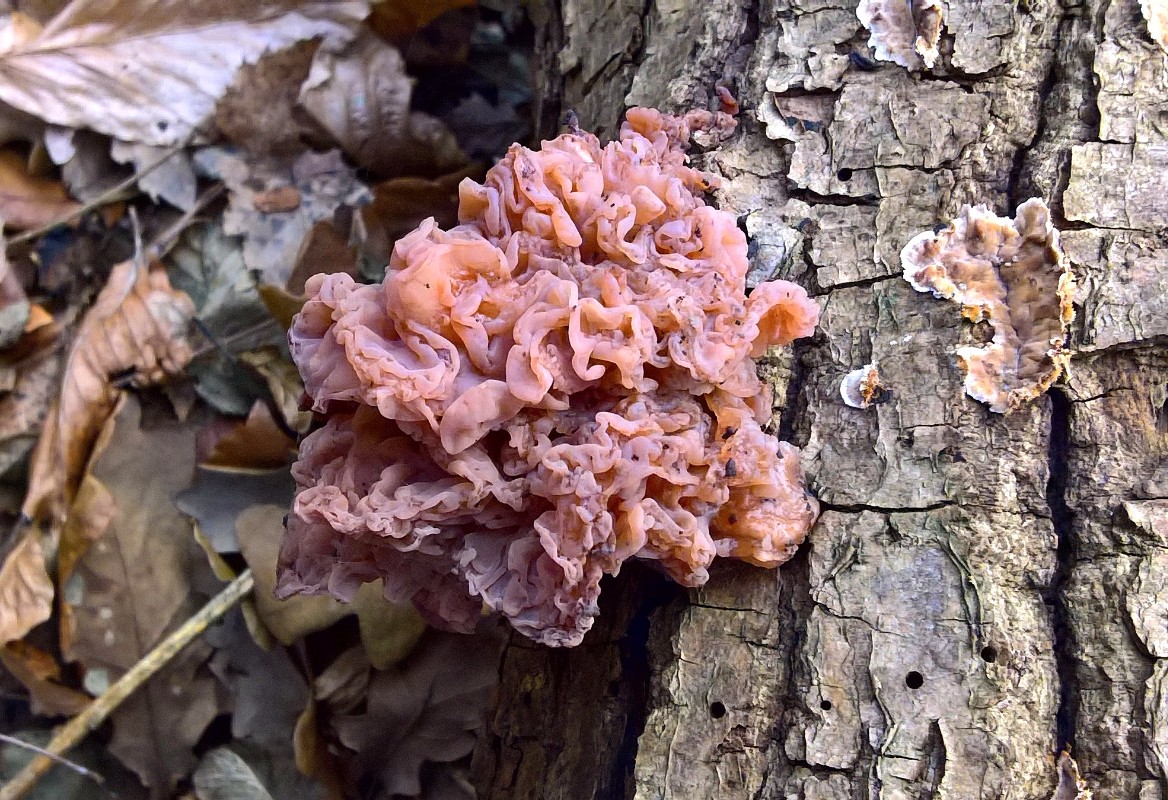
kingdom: Fungi
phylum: Basidiomycota
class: Tremellomycetes
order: Tremellales
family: Tremellaceae
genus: Phaeotremella
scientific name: Phaeotremella frondosa
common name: kæmpe-bævresvamp
